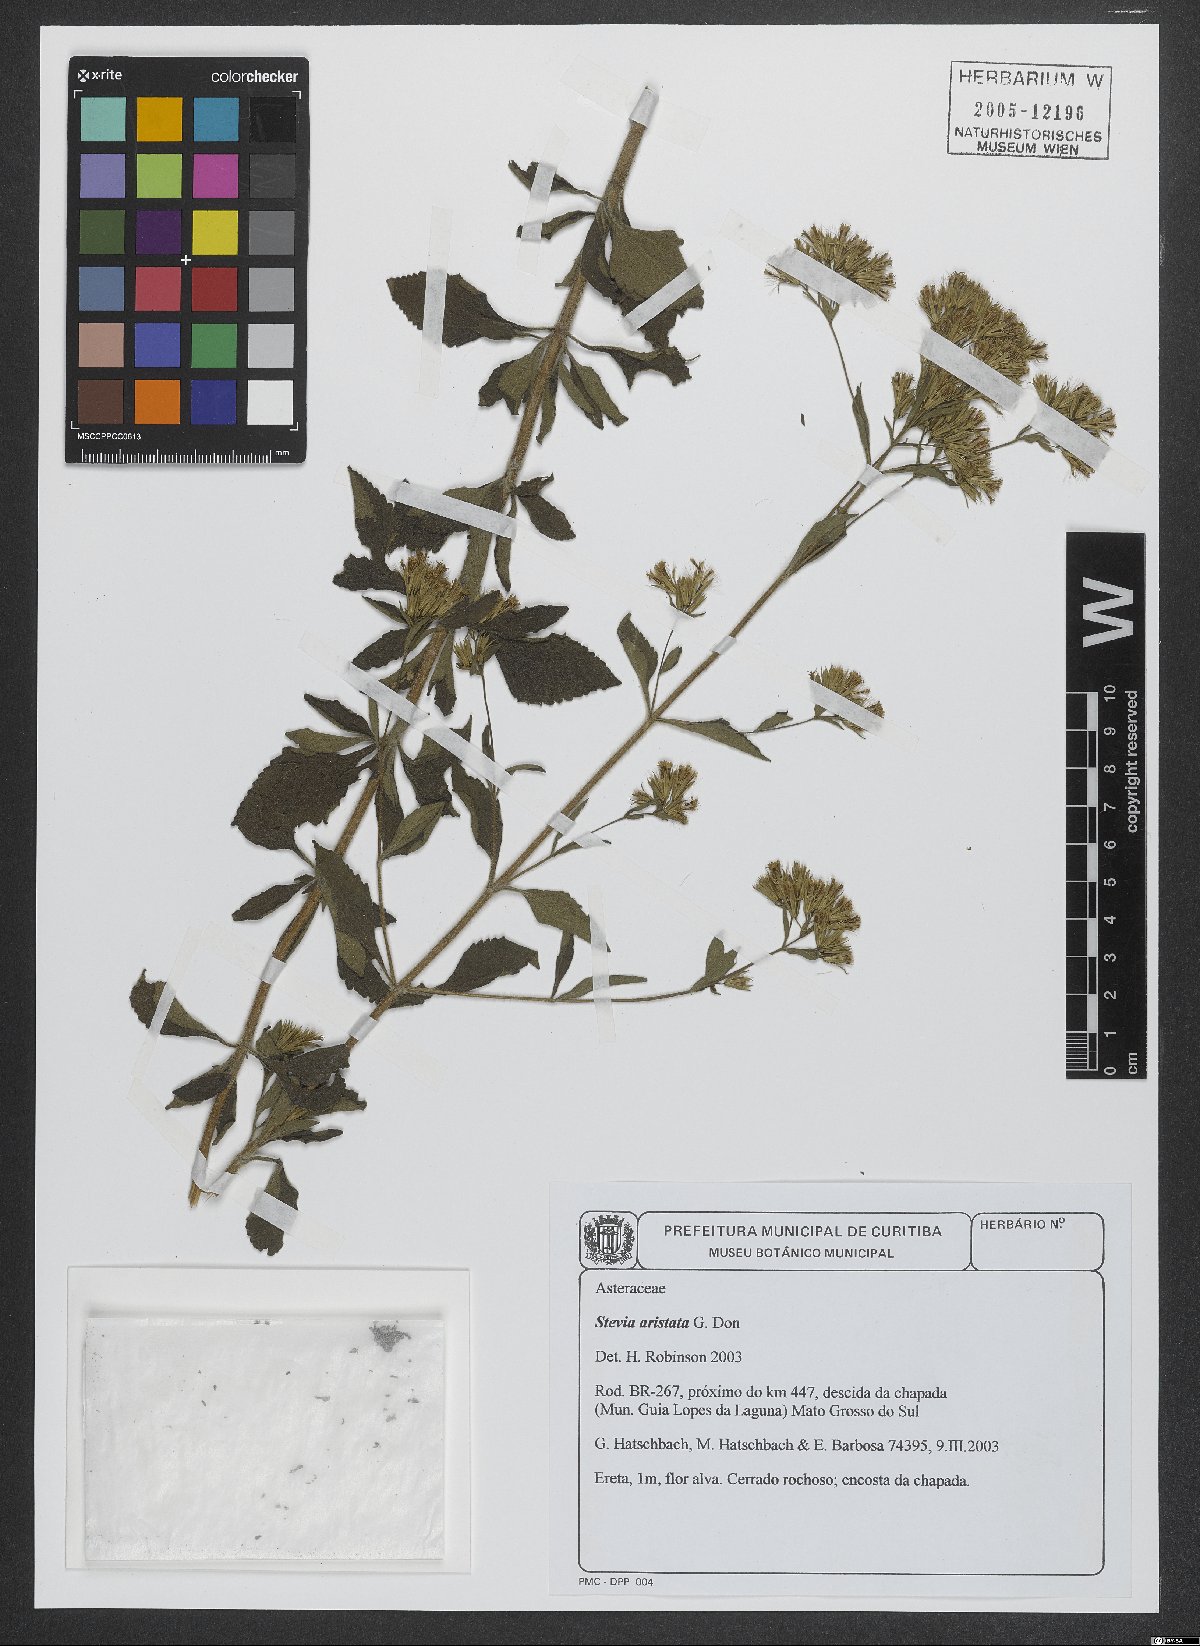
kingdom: Plantae
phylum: Tracheophyta
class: Magnoliopsida
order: Asterales
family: Asteraceae
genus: Stevia
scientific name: Stevia aristata
